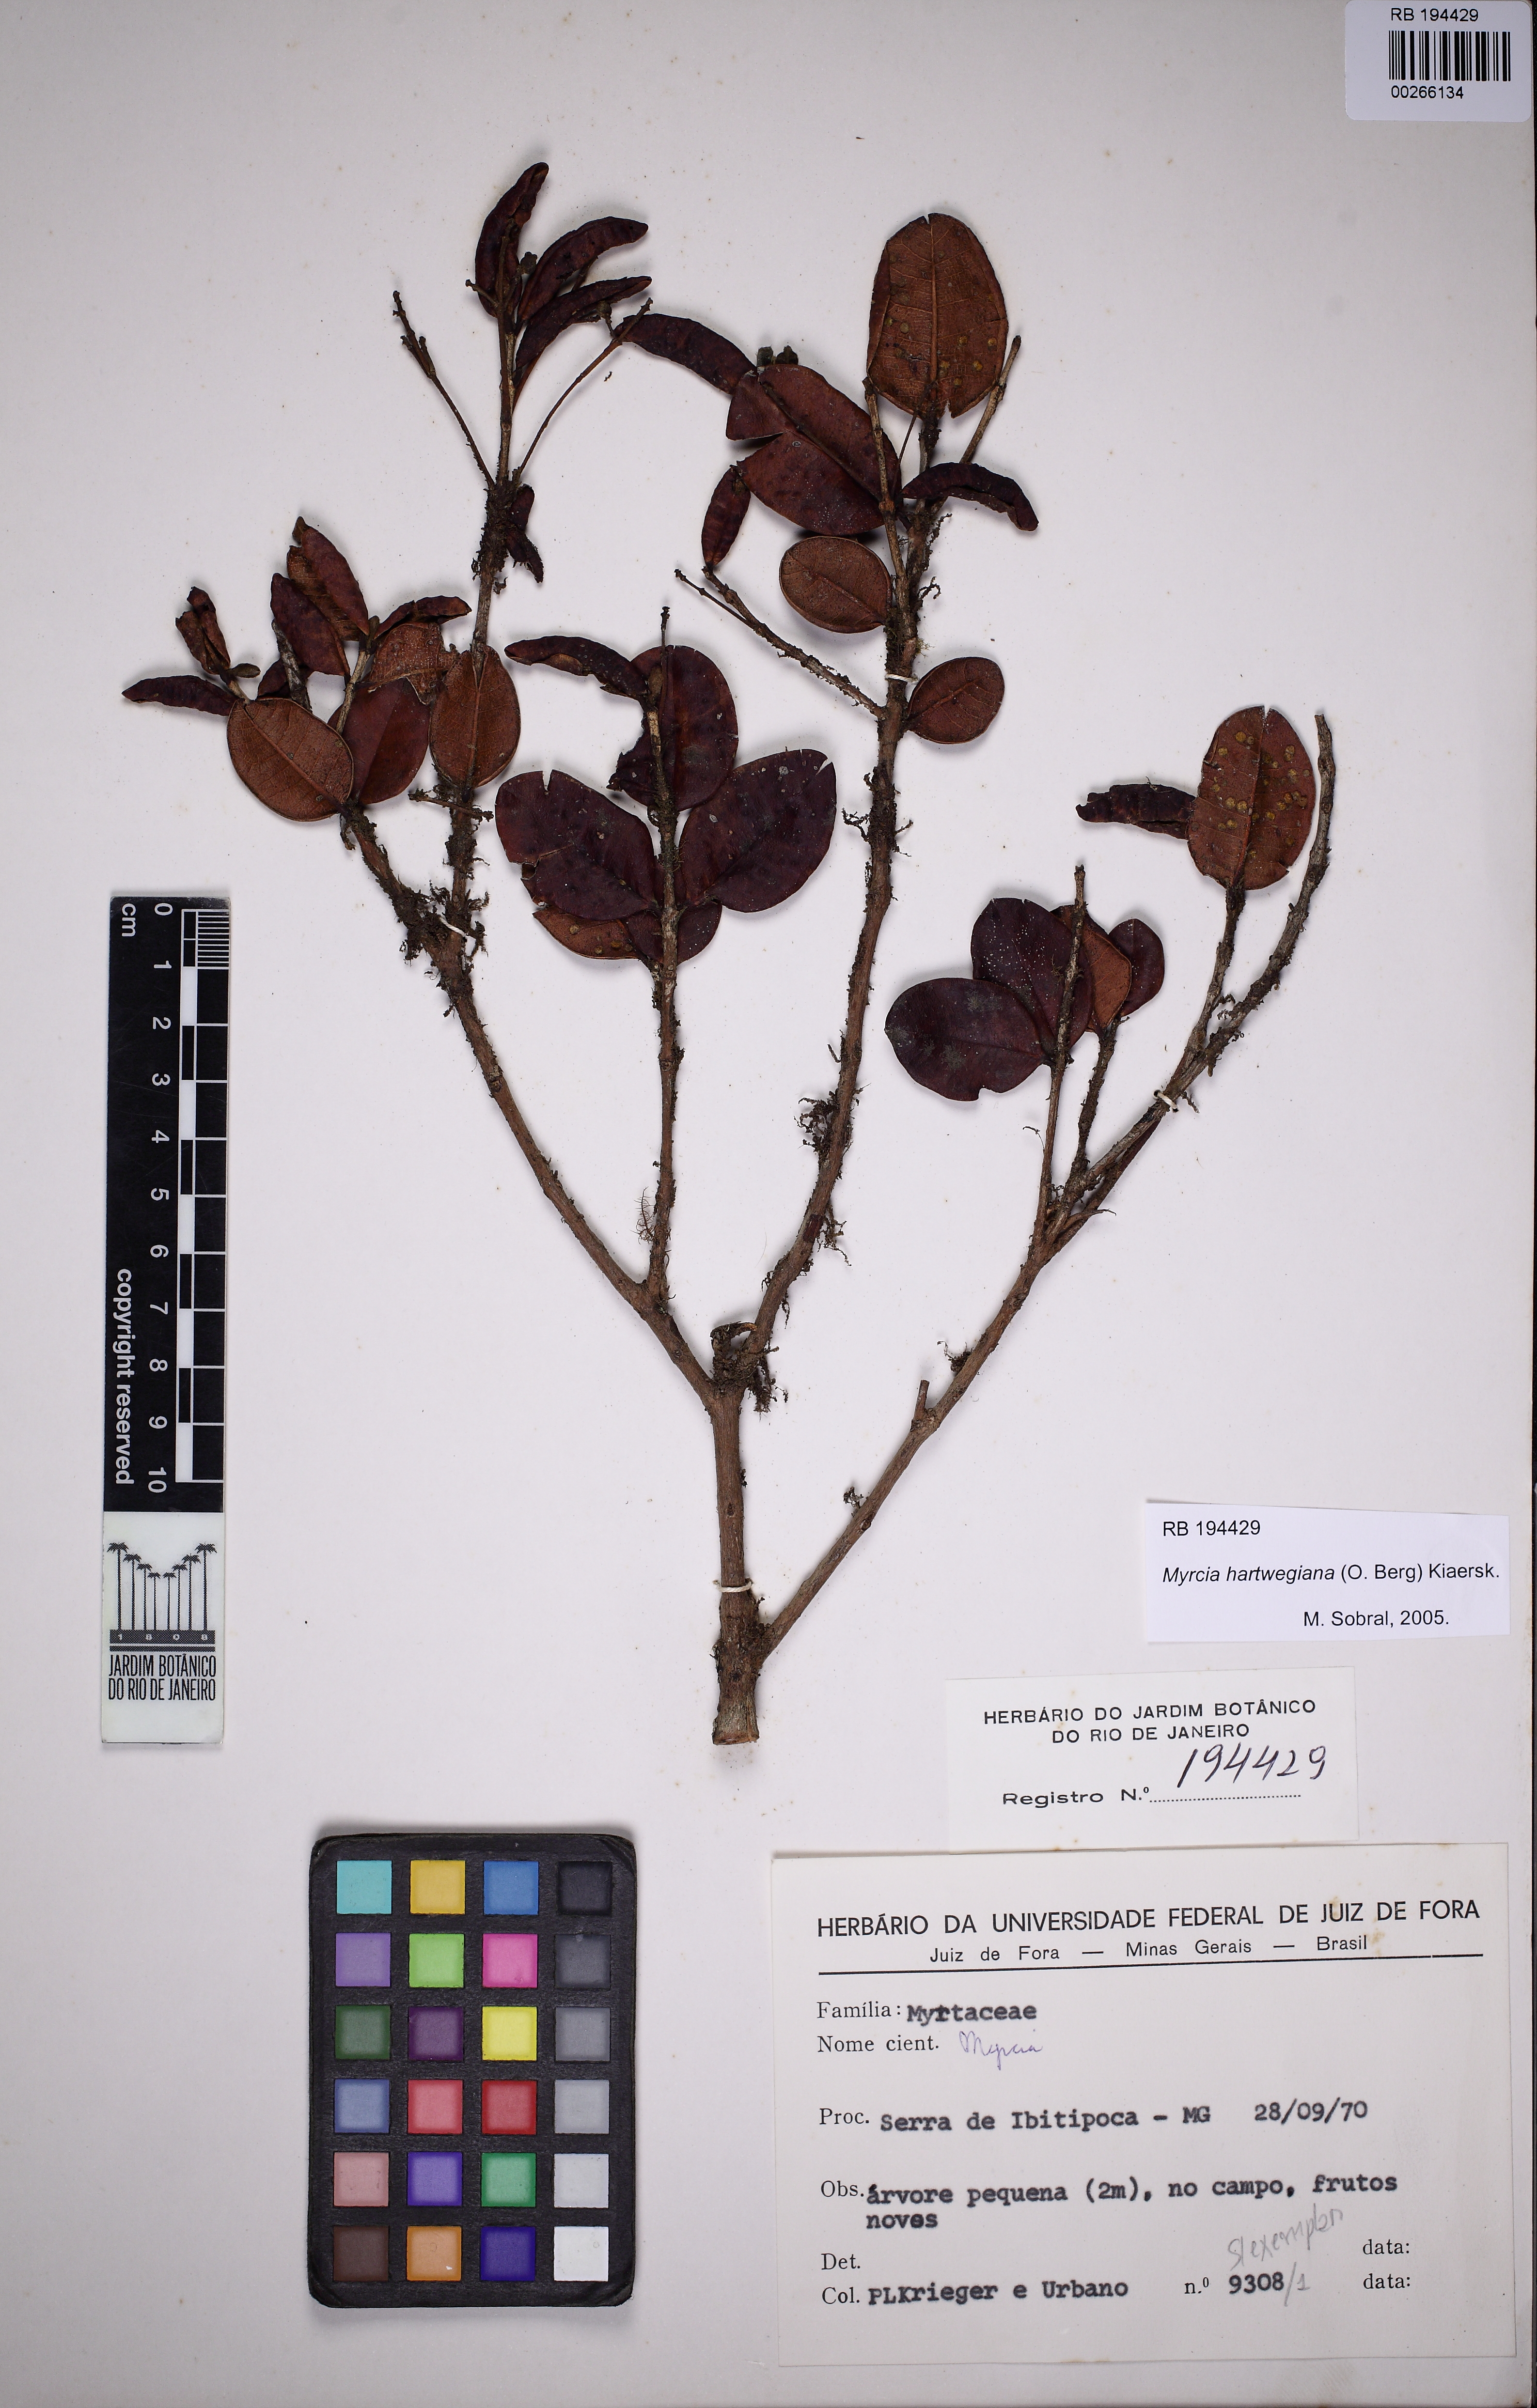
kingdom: Plantae
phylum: Tracheophyta
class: Magnoliopsida
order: Myrtales
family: Myrtaceae
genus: Myrcia
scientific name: Myrcia hartwegiana
